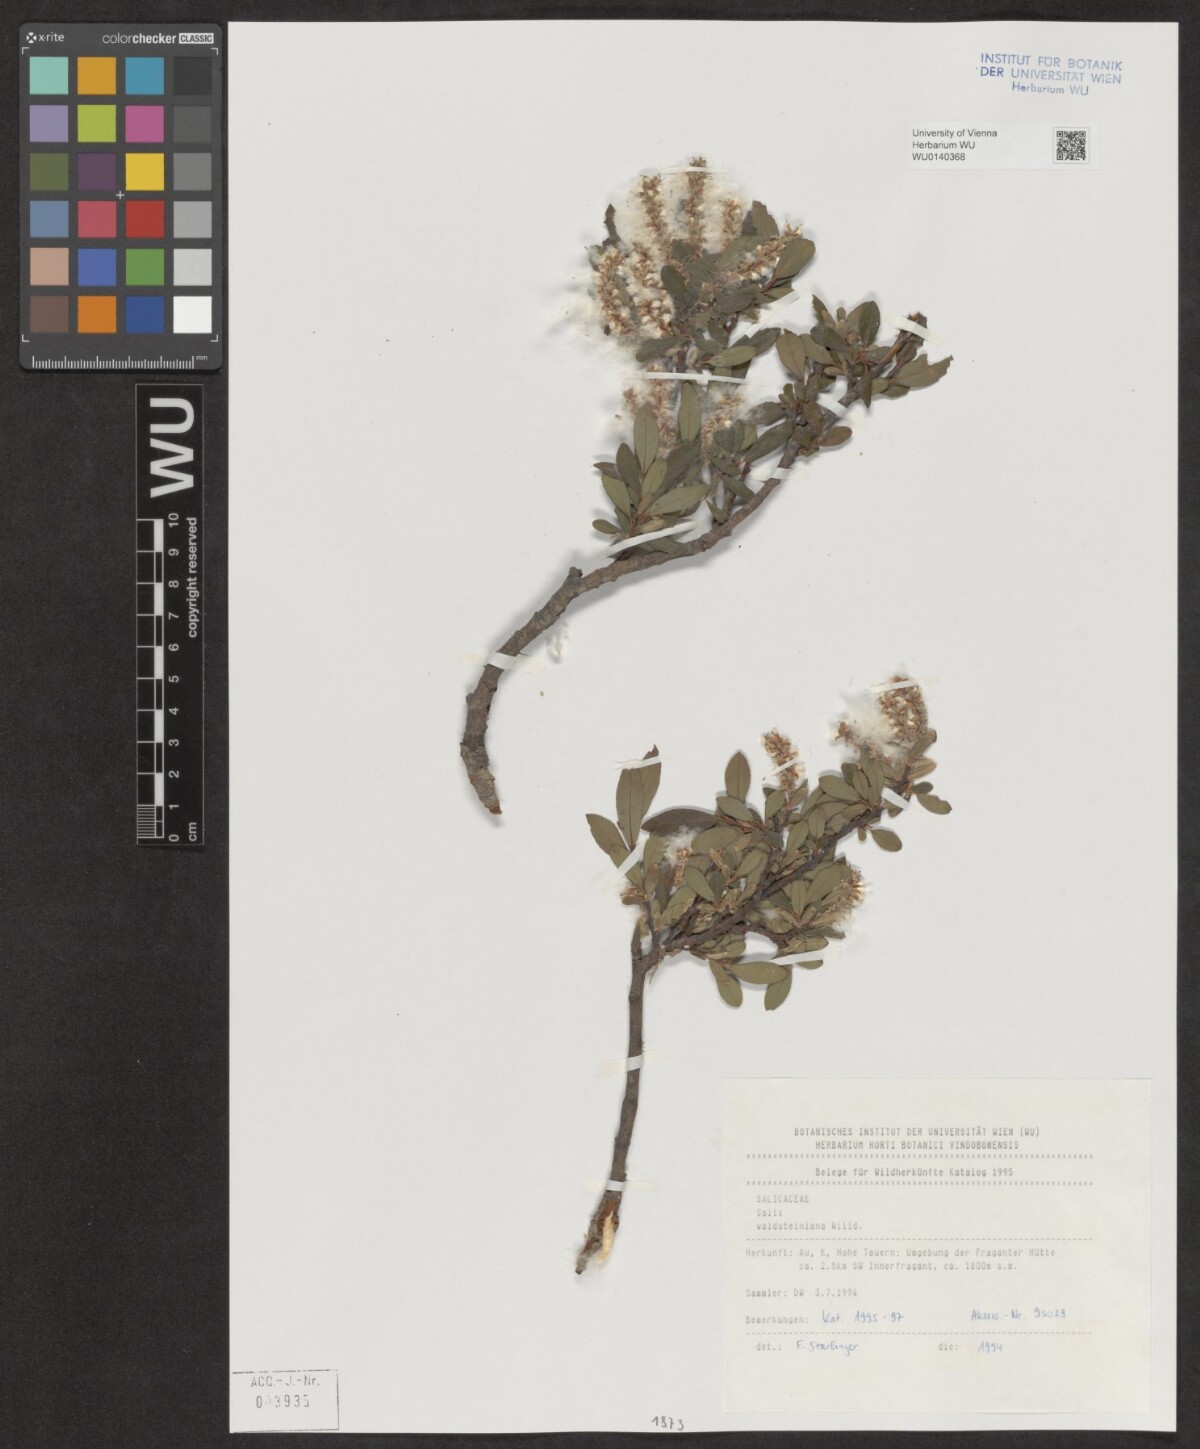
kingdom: Plantae
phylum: Tracheophyta
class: Magnoliopsida
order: Malpighiales
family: Salicaceae
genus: Salix
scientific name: Salix waldsteiniana
